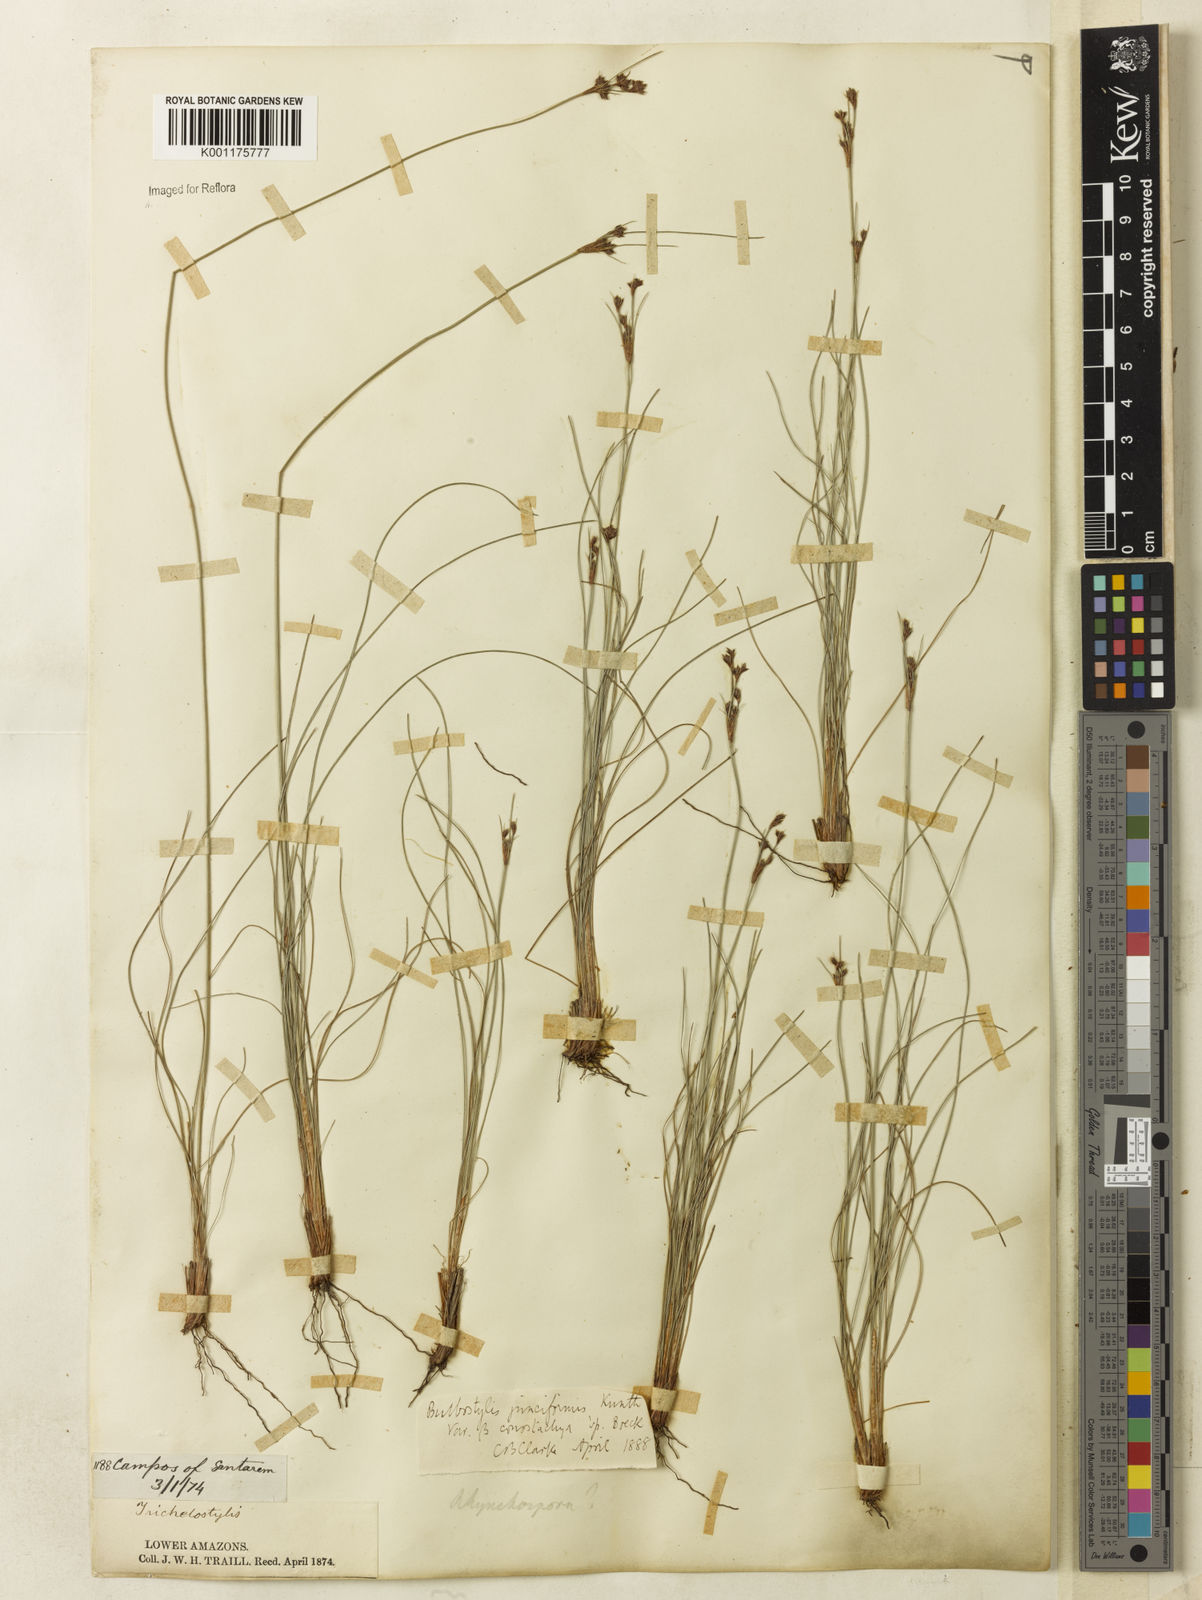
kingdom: Plantae
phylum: Tracheophyta
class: Liliopsida
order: Poales
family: Cyperaceae
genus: Bulbostylis
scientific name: Bulbostylis conostachya
